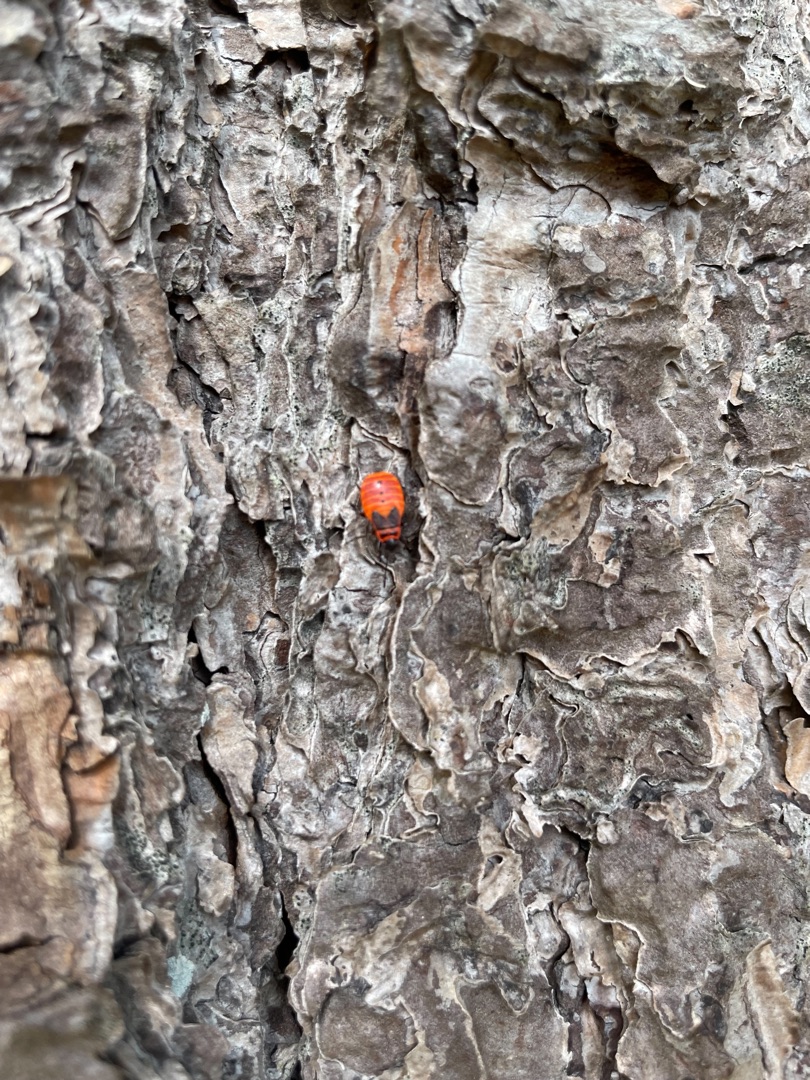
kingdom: Animalia
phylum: Arthropoda
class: Insecta
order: Hemiptera
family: Pyrrhocoridae
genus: Pyrrhocoris
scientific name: Pyrrhocoris apterus
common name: Ildtæge
